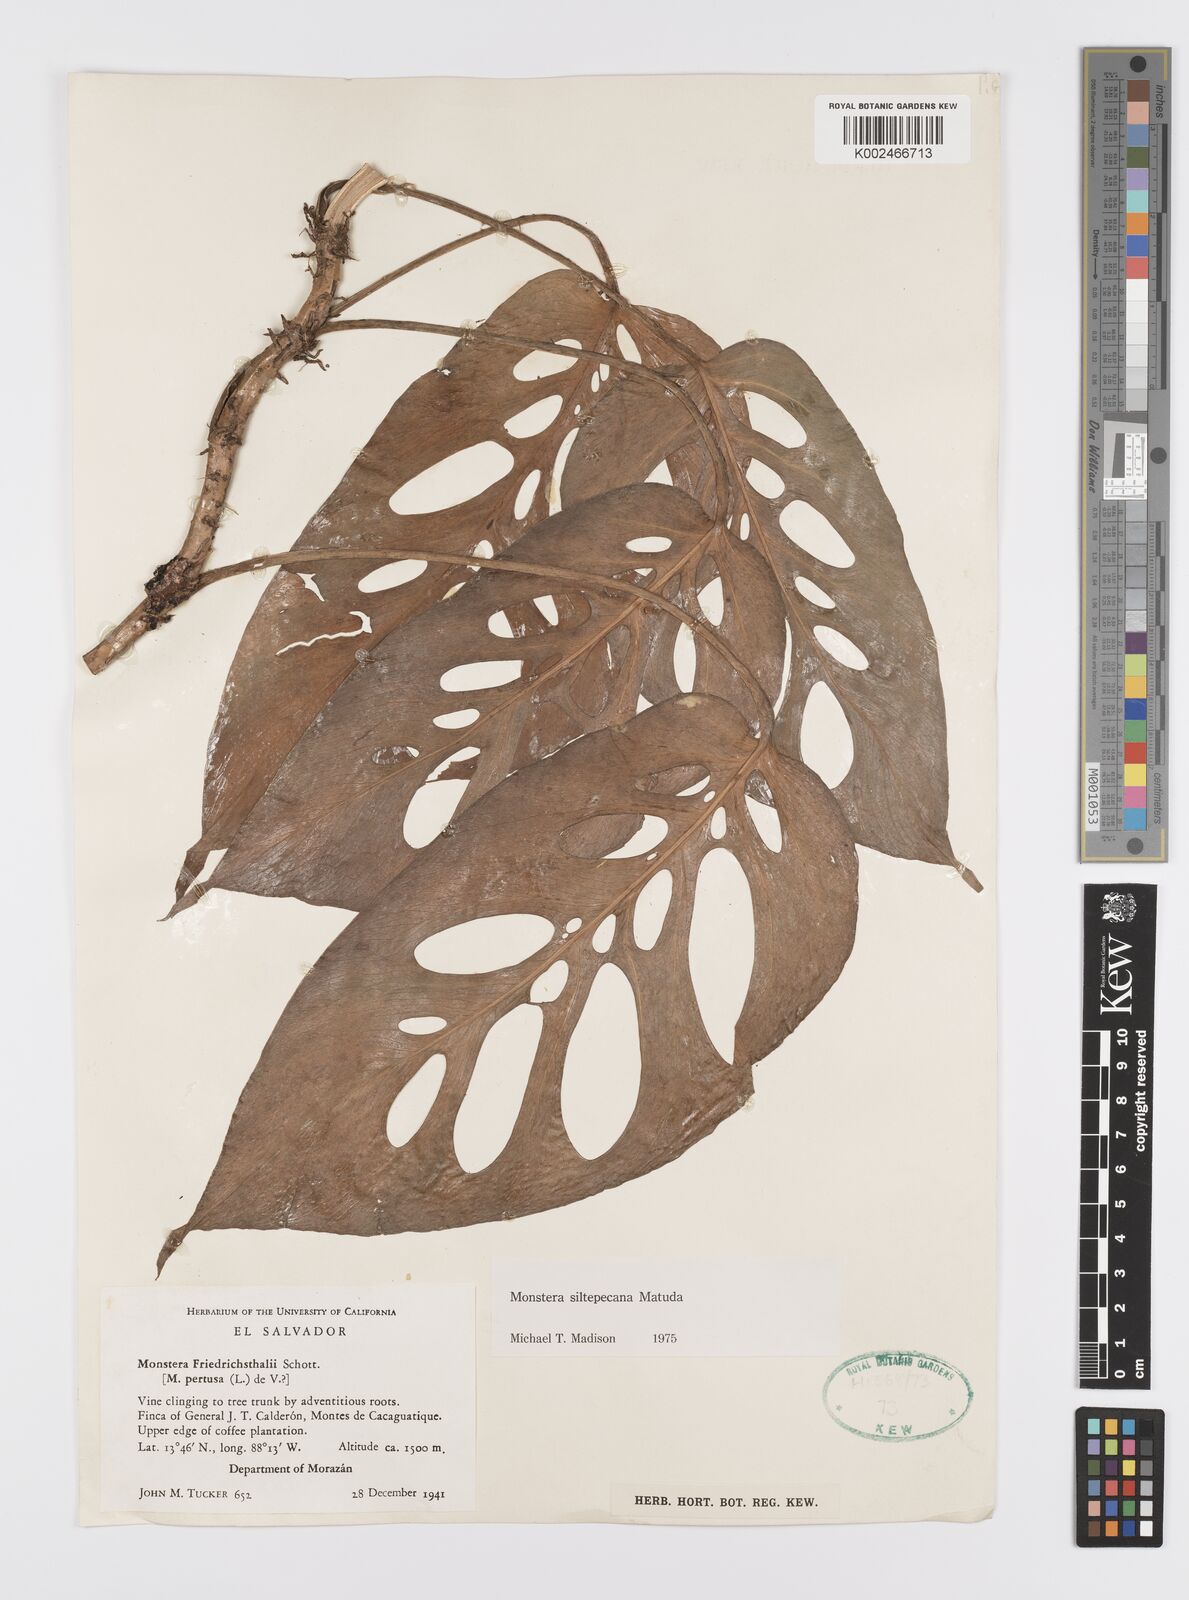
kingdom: Plantae
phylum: Tracheophyta
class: Liliopsida
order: Alismatales
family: Araceae
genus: Monstera
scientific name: Monstera siltepecana
